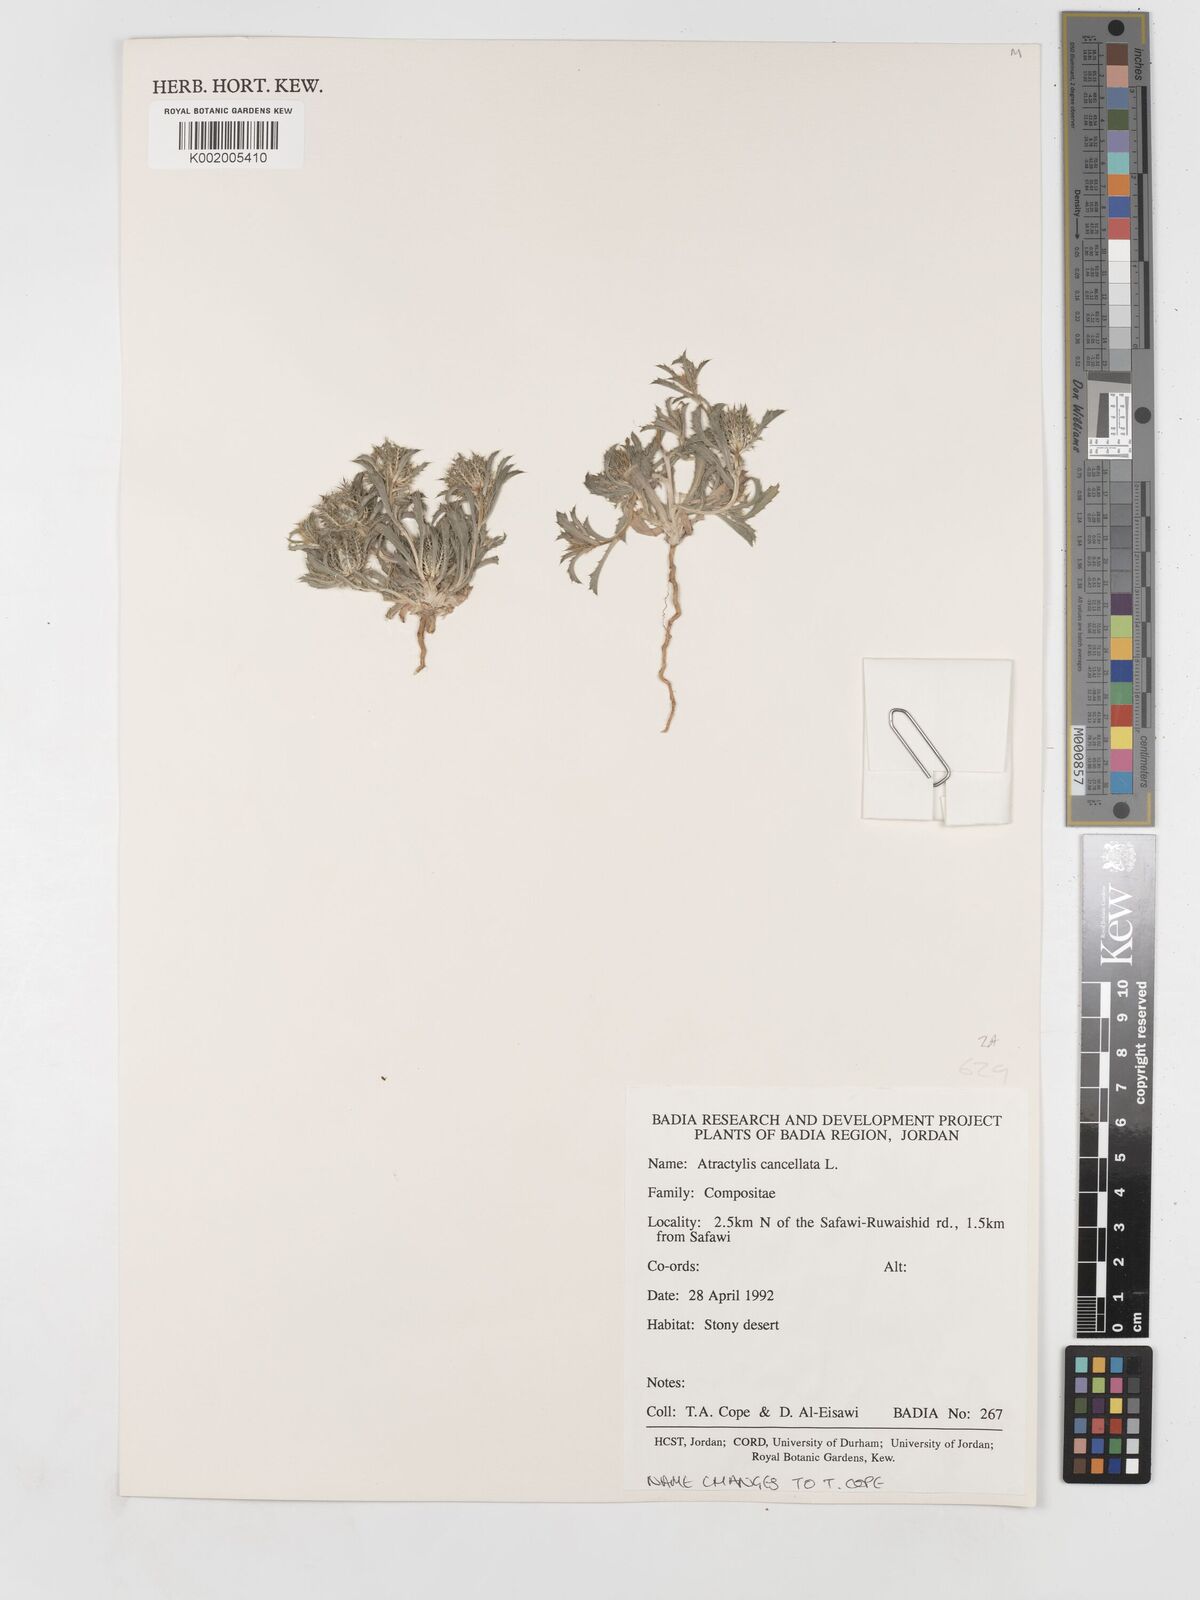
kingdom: Plantae
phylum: Tracheophyta
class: Magnoliopsida
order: Asterales
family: Asteraceae
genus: Atractylis
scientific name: Atractylis cancellata
